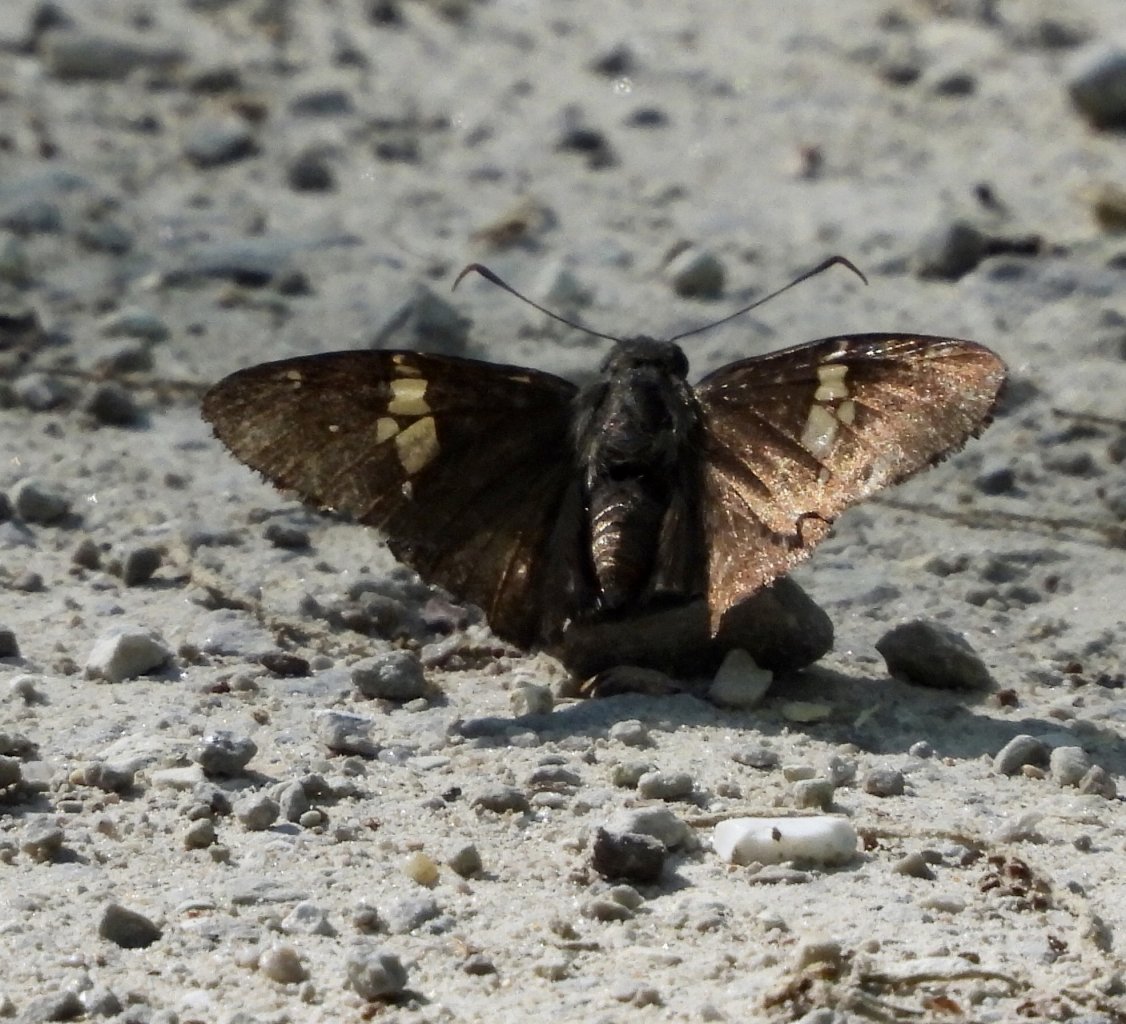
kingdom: Animalia
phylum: Arthropoda
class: Insecta
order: Lepidoptera
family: Hesperiidae
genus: Achalarus
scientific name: Achalarus lyciades
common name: Hoary Edge
